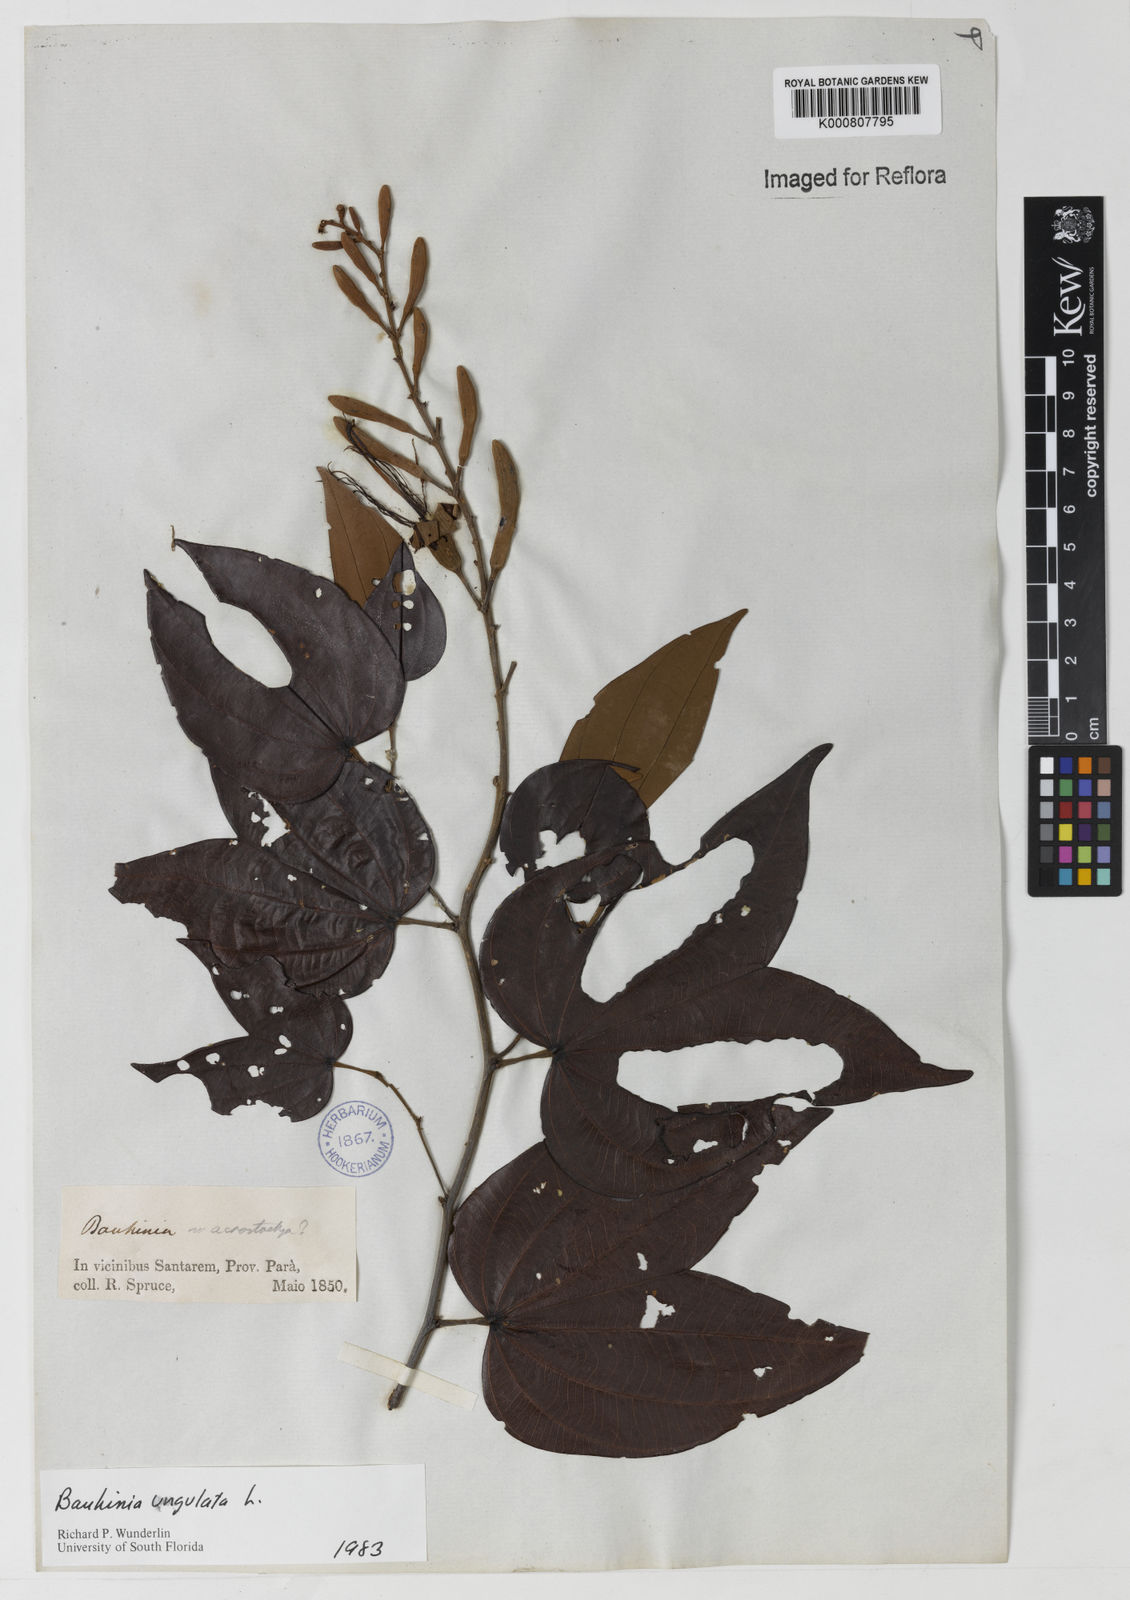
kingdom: Plantae
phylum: Tracheophyta
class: Magnoliopsida
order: Fabales
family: Fabaceae
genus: Bauhinia
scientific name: Bauhinia ungulata
